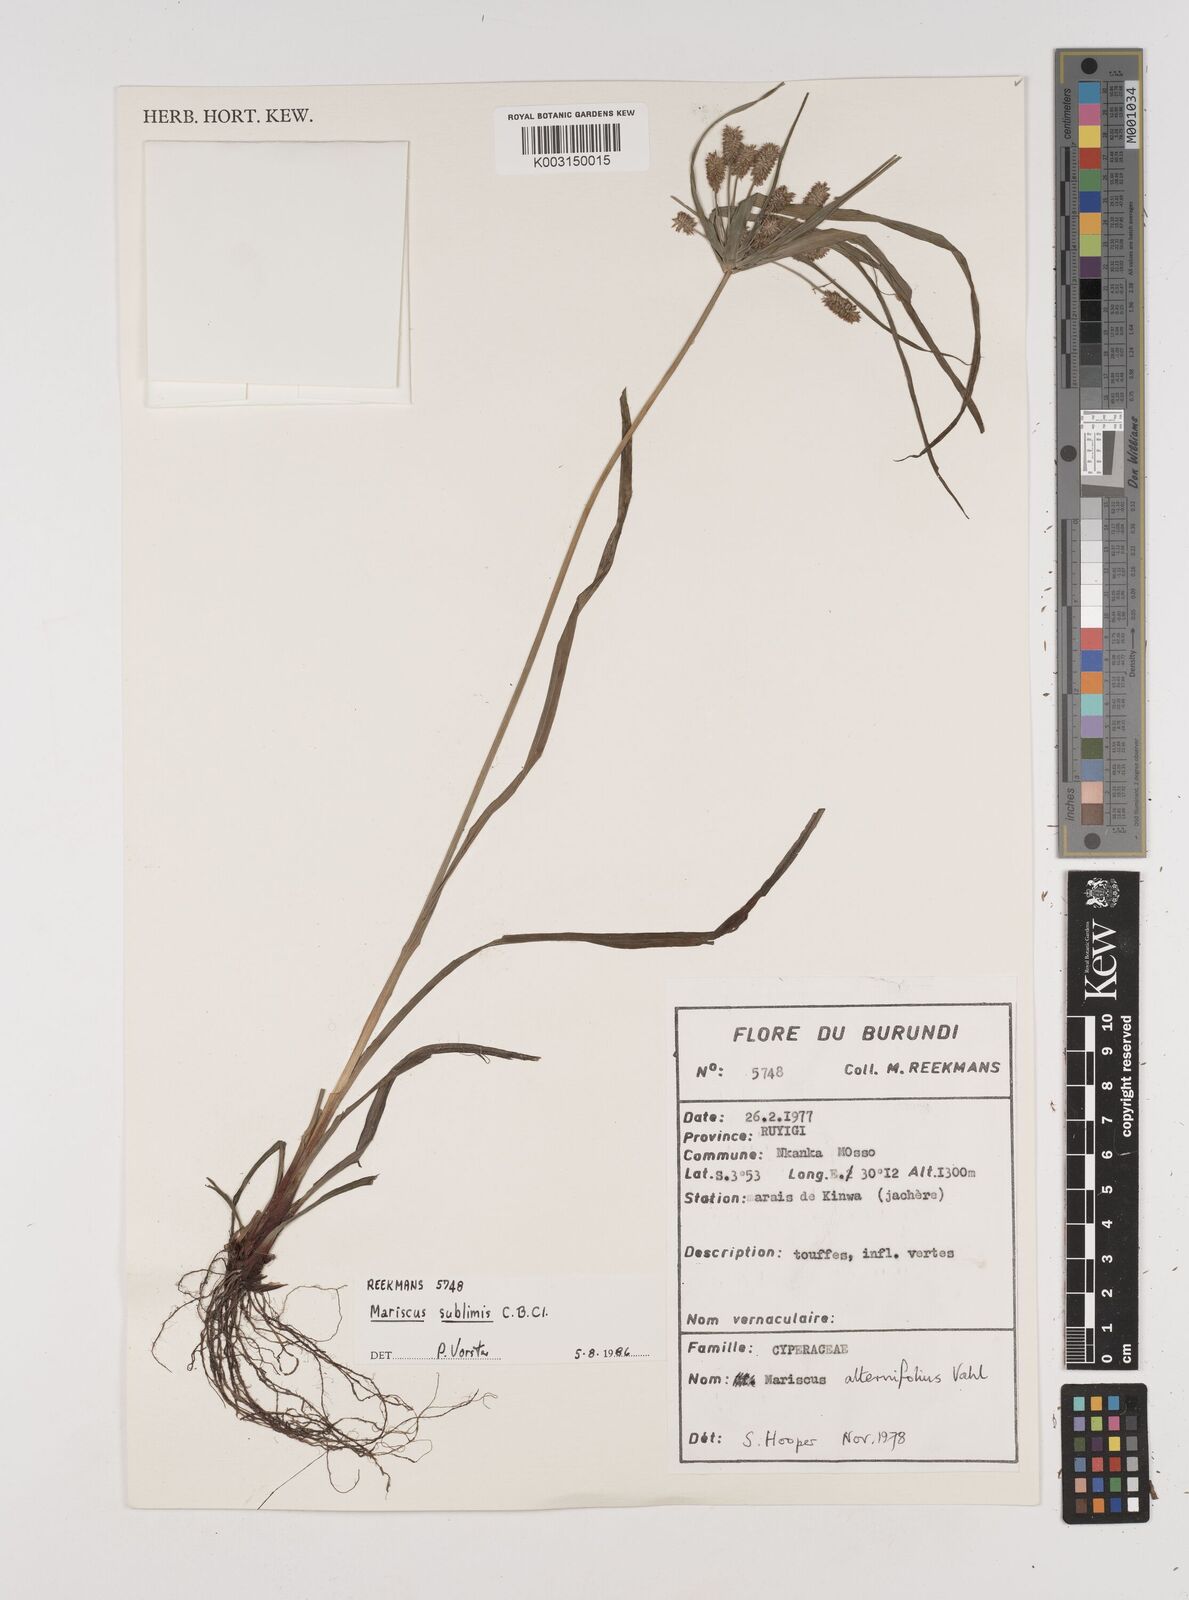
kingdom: Plantae
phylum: Tracheophyta
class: Liliopsida
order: Poales
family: Cyperaceae
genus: Cyperus
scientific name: Cyperus cyperoides
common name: Pacific island flat sedge
